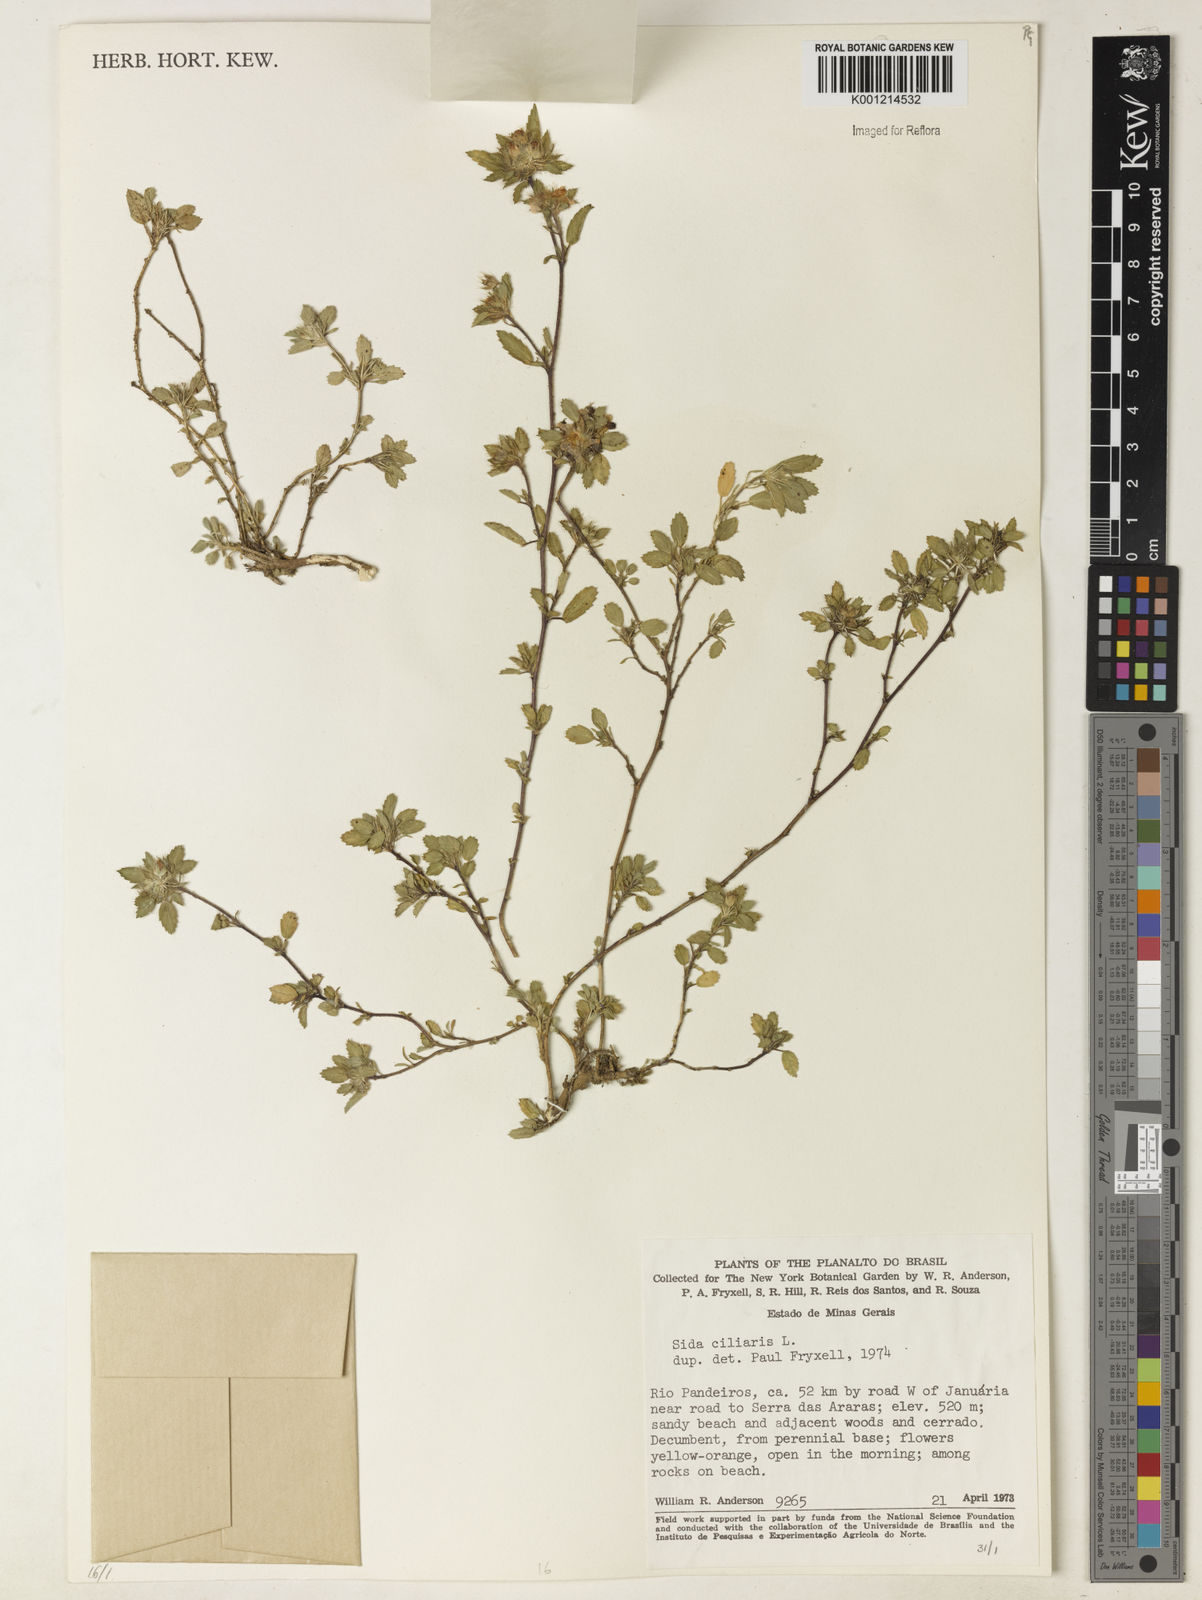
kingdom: Plantae
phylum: Tracheophyta
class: Magnoliopsida
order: Malvales
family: Malvaceae
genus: Sida
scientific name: Sida ciliaris
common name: Bracted fanpetals
